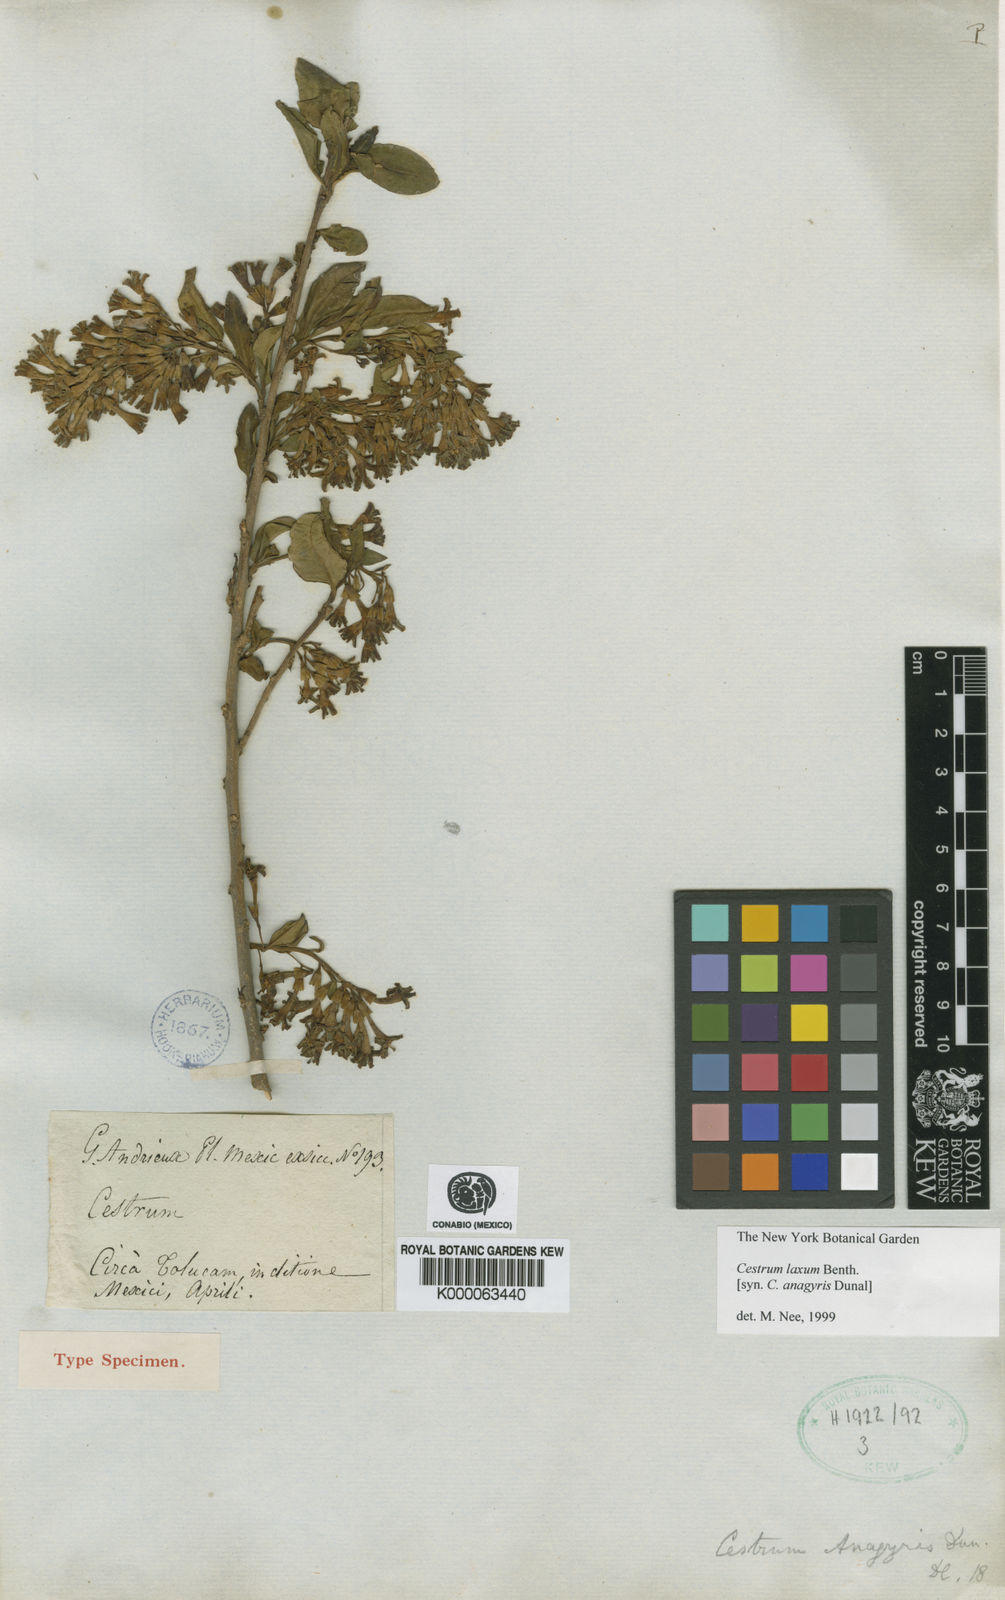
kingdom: Plantae
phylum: Tracheophyta
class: Magnoliopsida
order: Solanales
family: Solanaceae
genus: Cestrum
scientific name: Cestrum laxum
